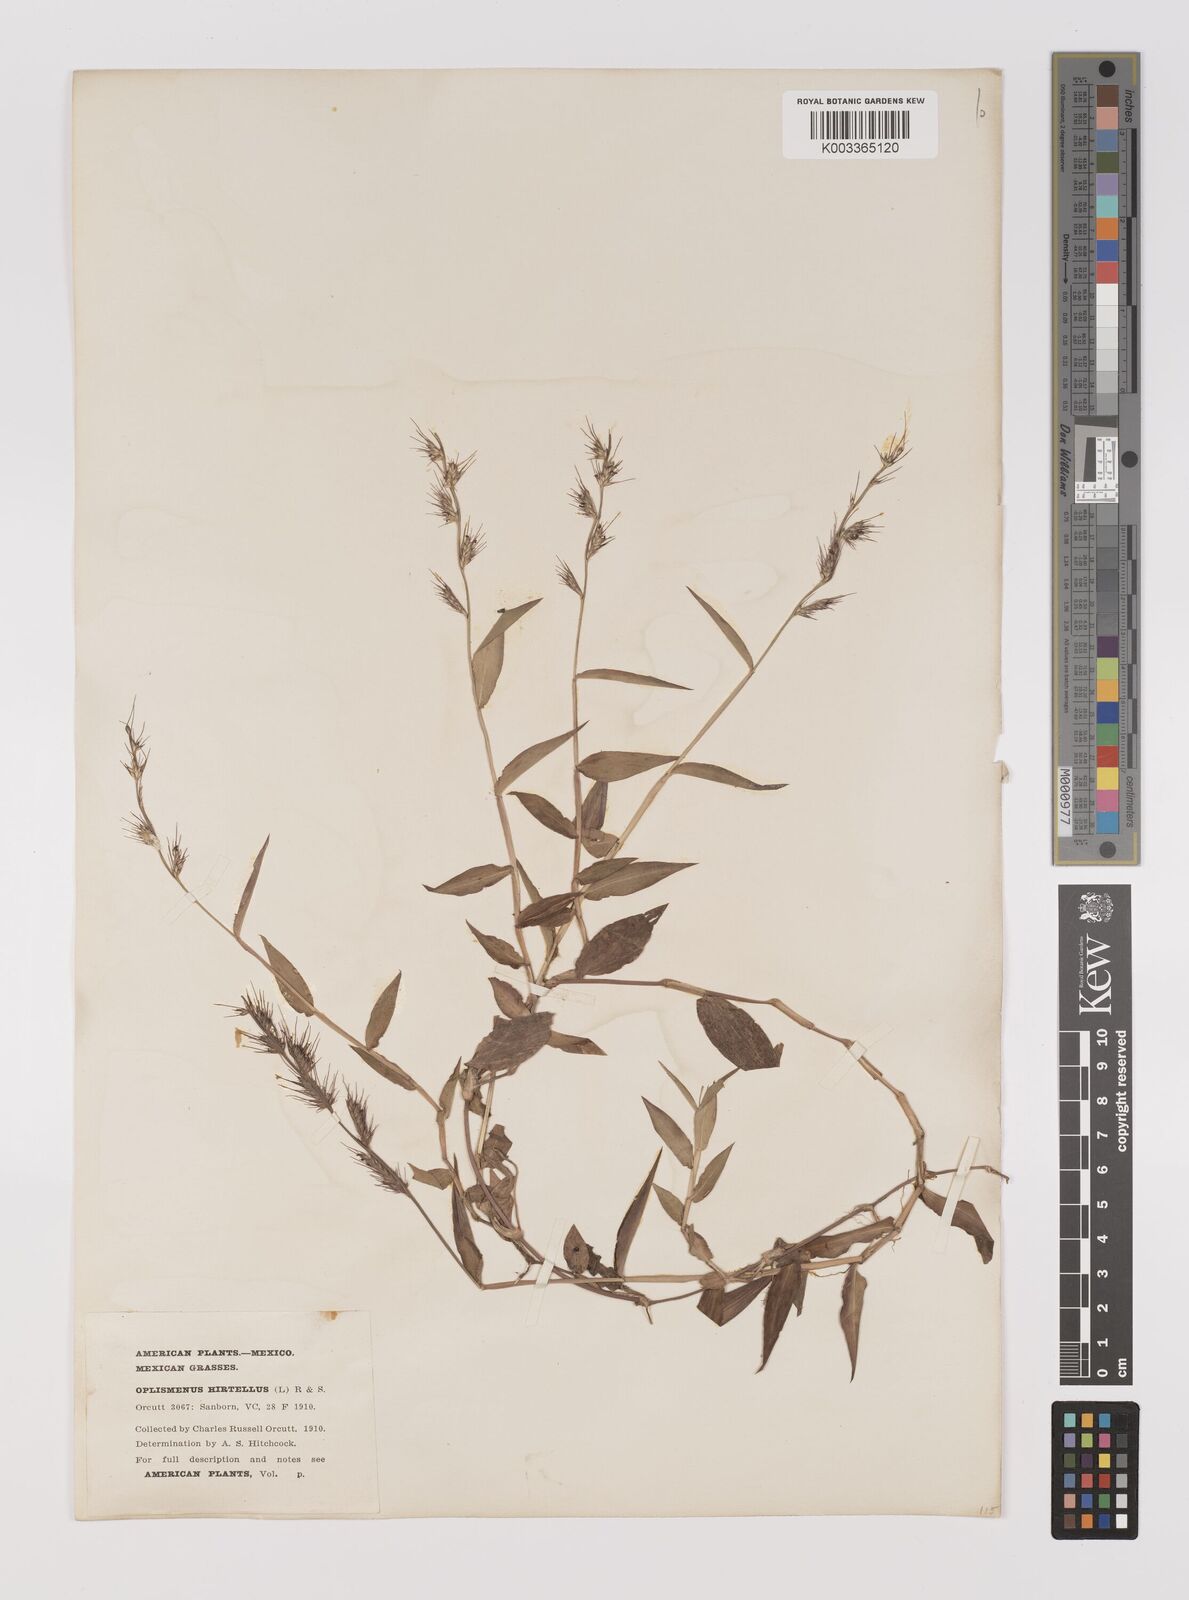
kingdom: Plantae
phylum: Tracheophyta
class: Liliopsida
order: Poales
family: Poaceae
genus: Oplismenus
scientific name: Oplismenus hirtellus
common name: Basketgrass
